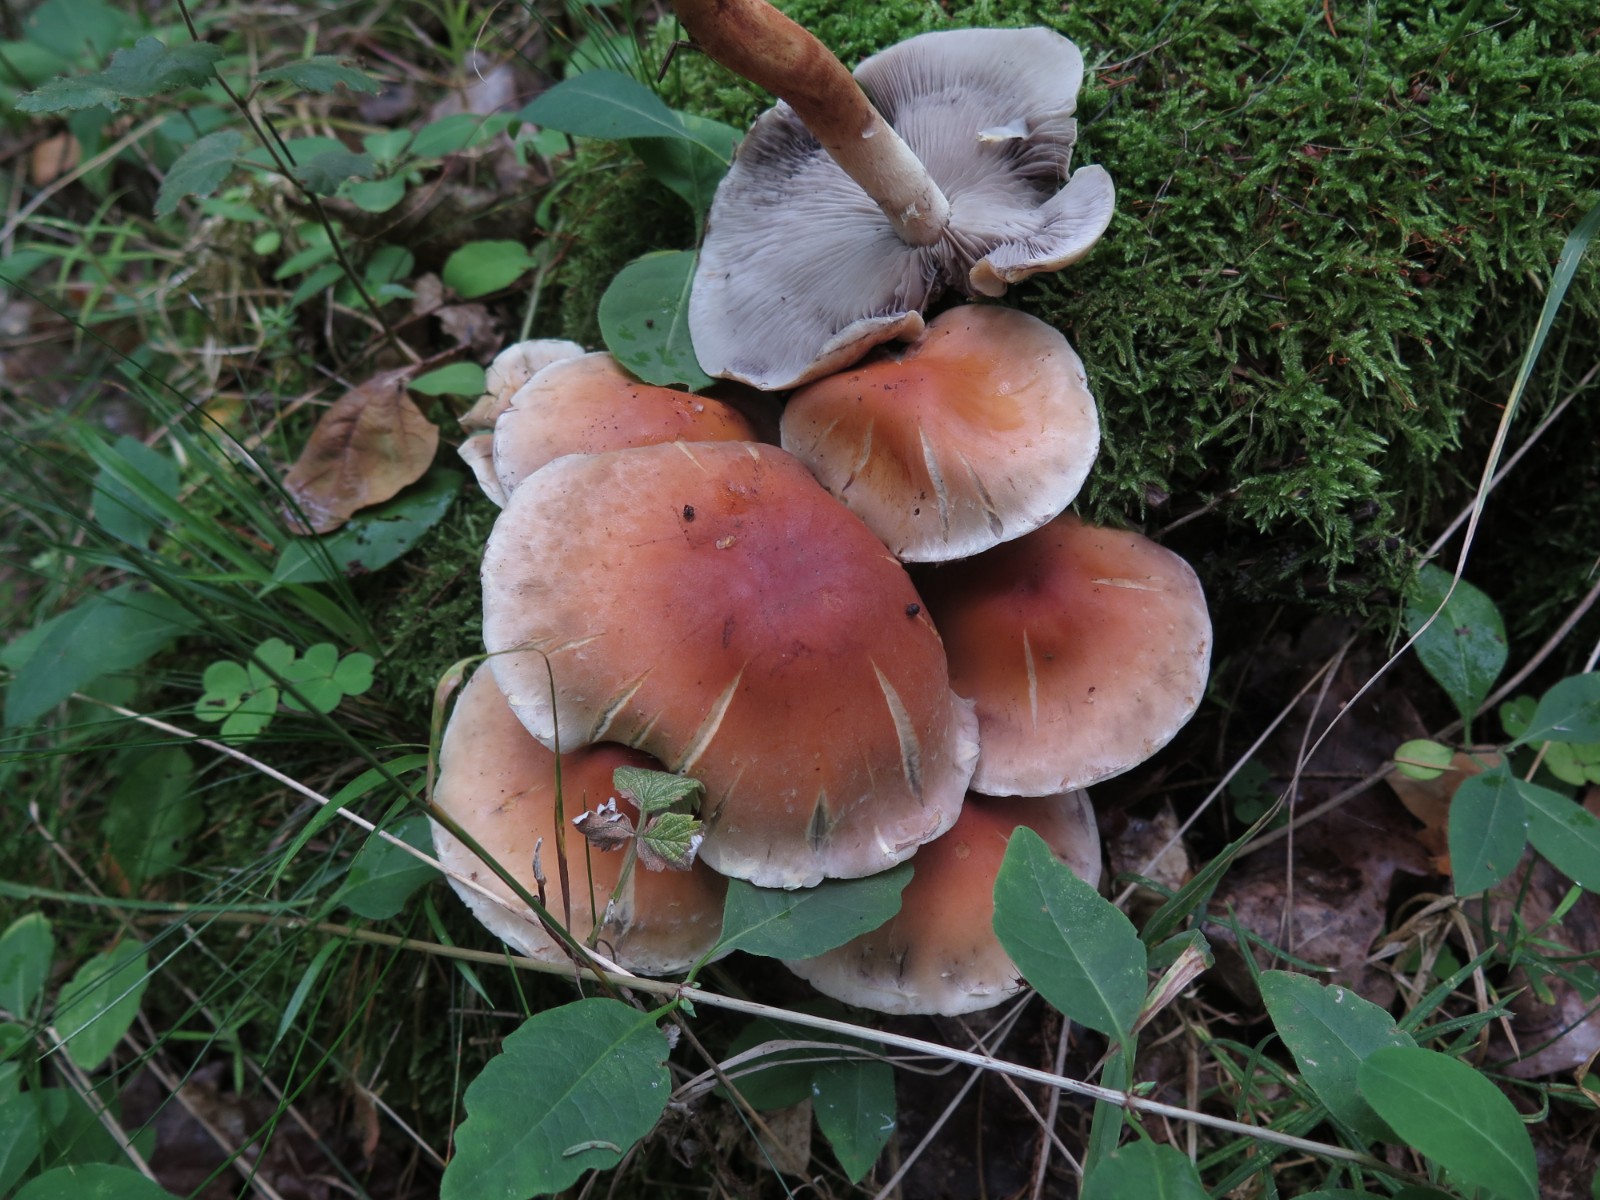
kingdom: Fungi
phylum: Basidiomycota
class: Agaricomycetes
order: Agaricales
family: Strophariaceae
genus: Hypholoma
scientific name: Hypholoma lateritium
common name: teglrød svovlhat
